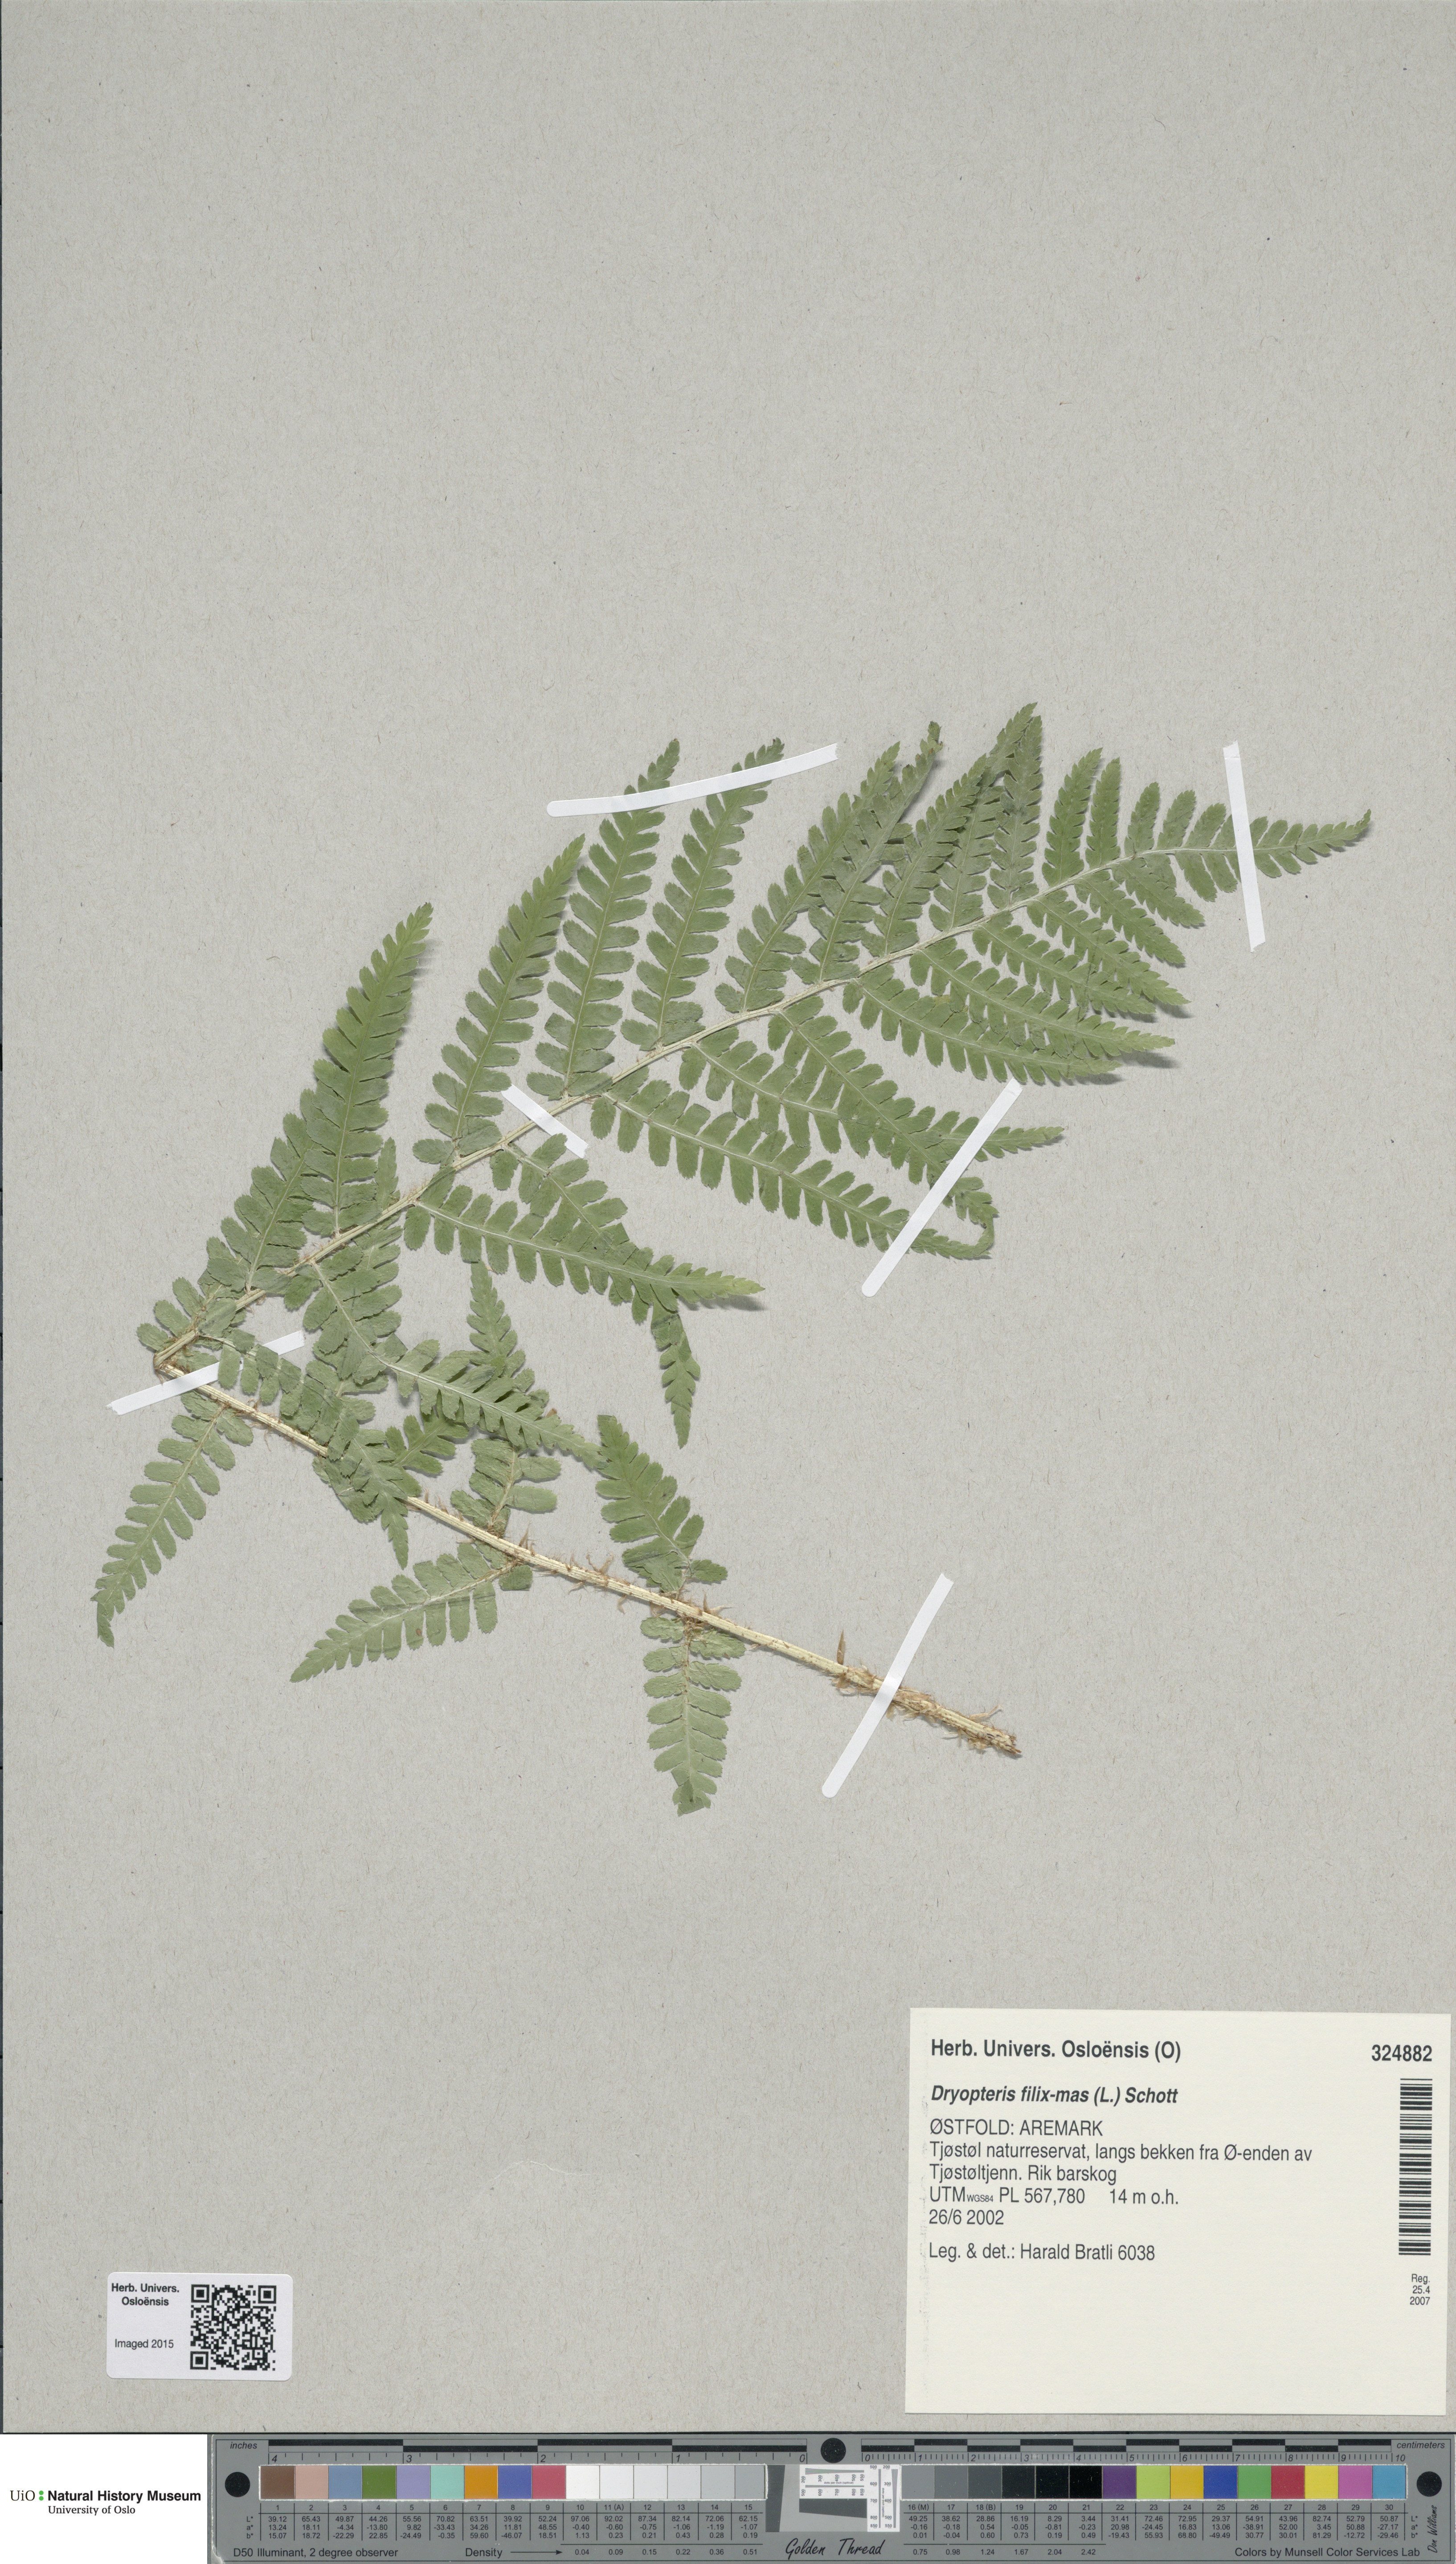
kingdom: Plantae
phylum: Tracheophyta
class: Polypodiopsida
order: Polypodiales
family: Dryopteridaceae
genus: Dryopteris
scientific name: Dryopteris filix-mas
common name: Male fern
